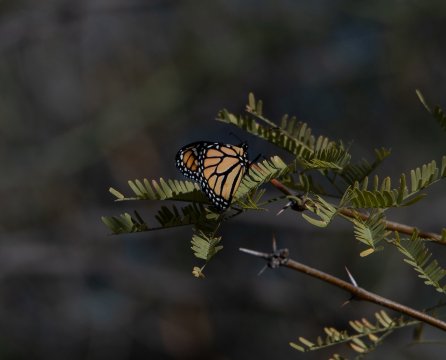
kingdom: Animalia
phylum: Arthropoda
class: Insecta
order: Lepidoptera
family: Nymphalidae
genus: Danaus
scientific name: Danaus plexippus
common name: Monarch
